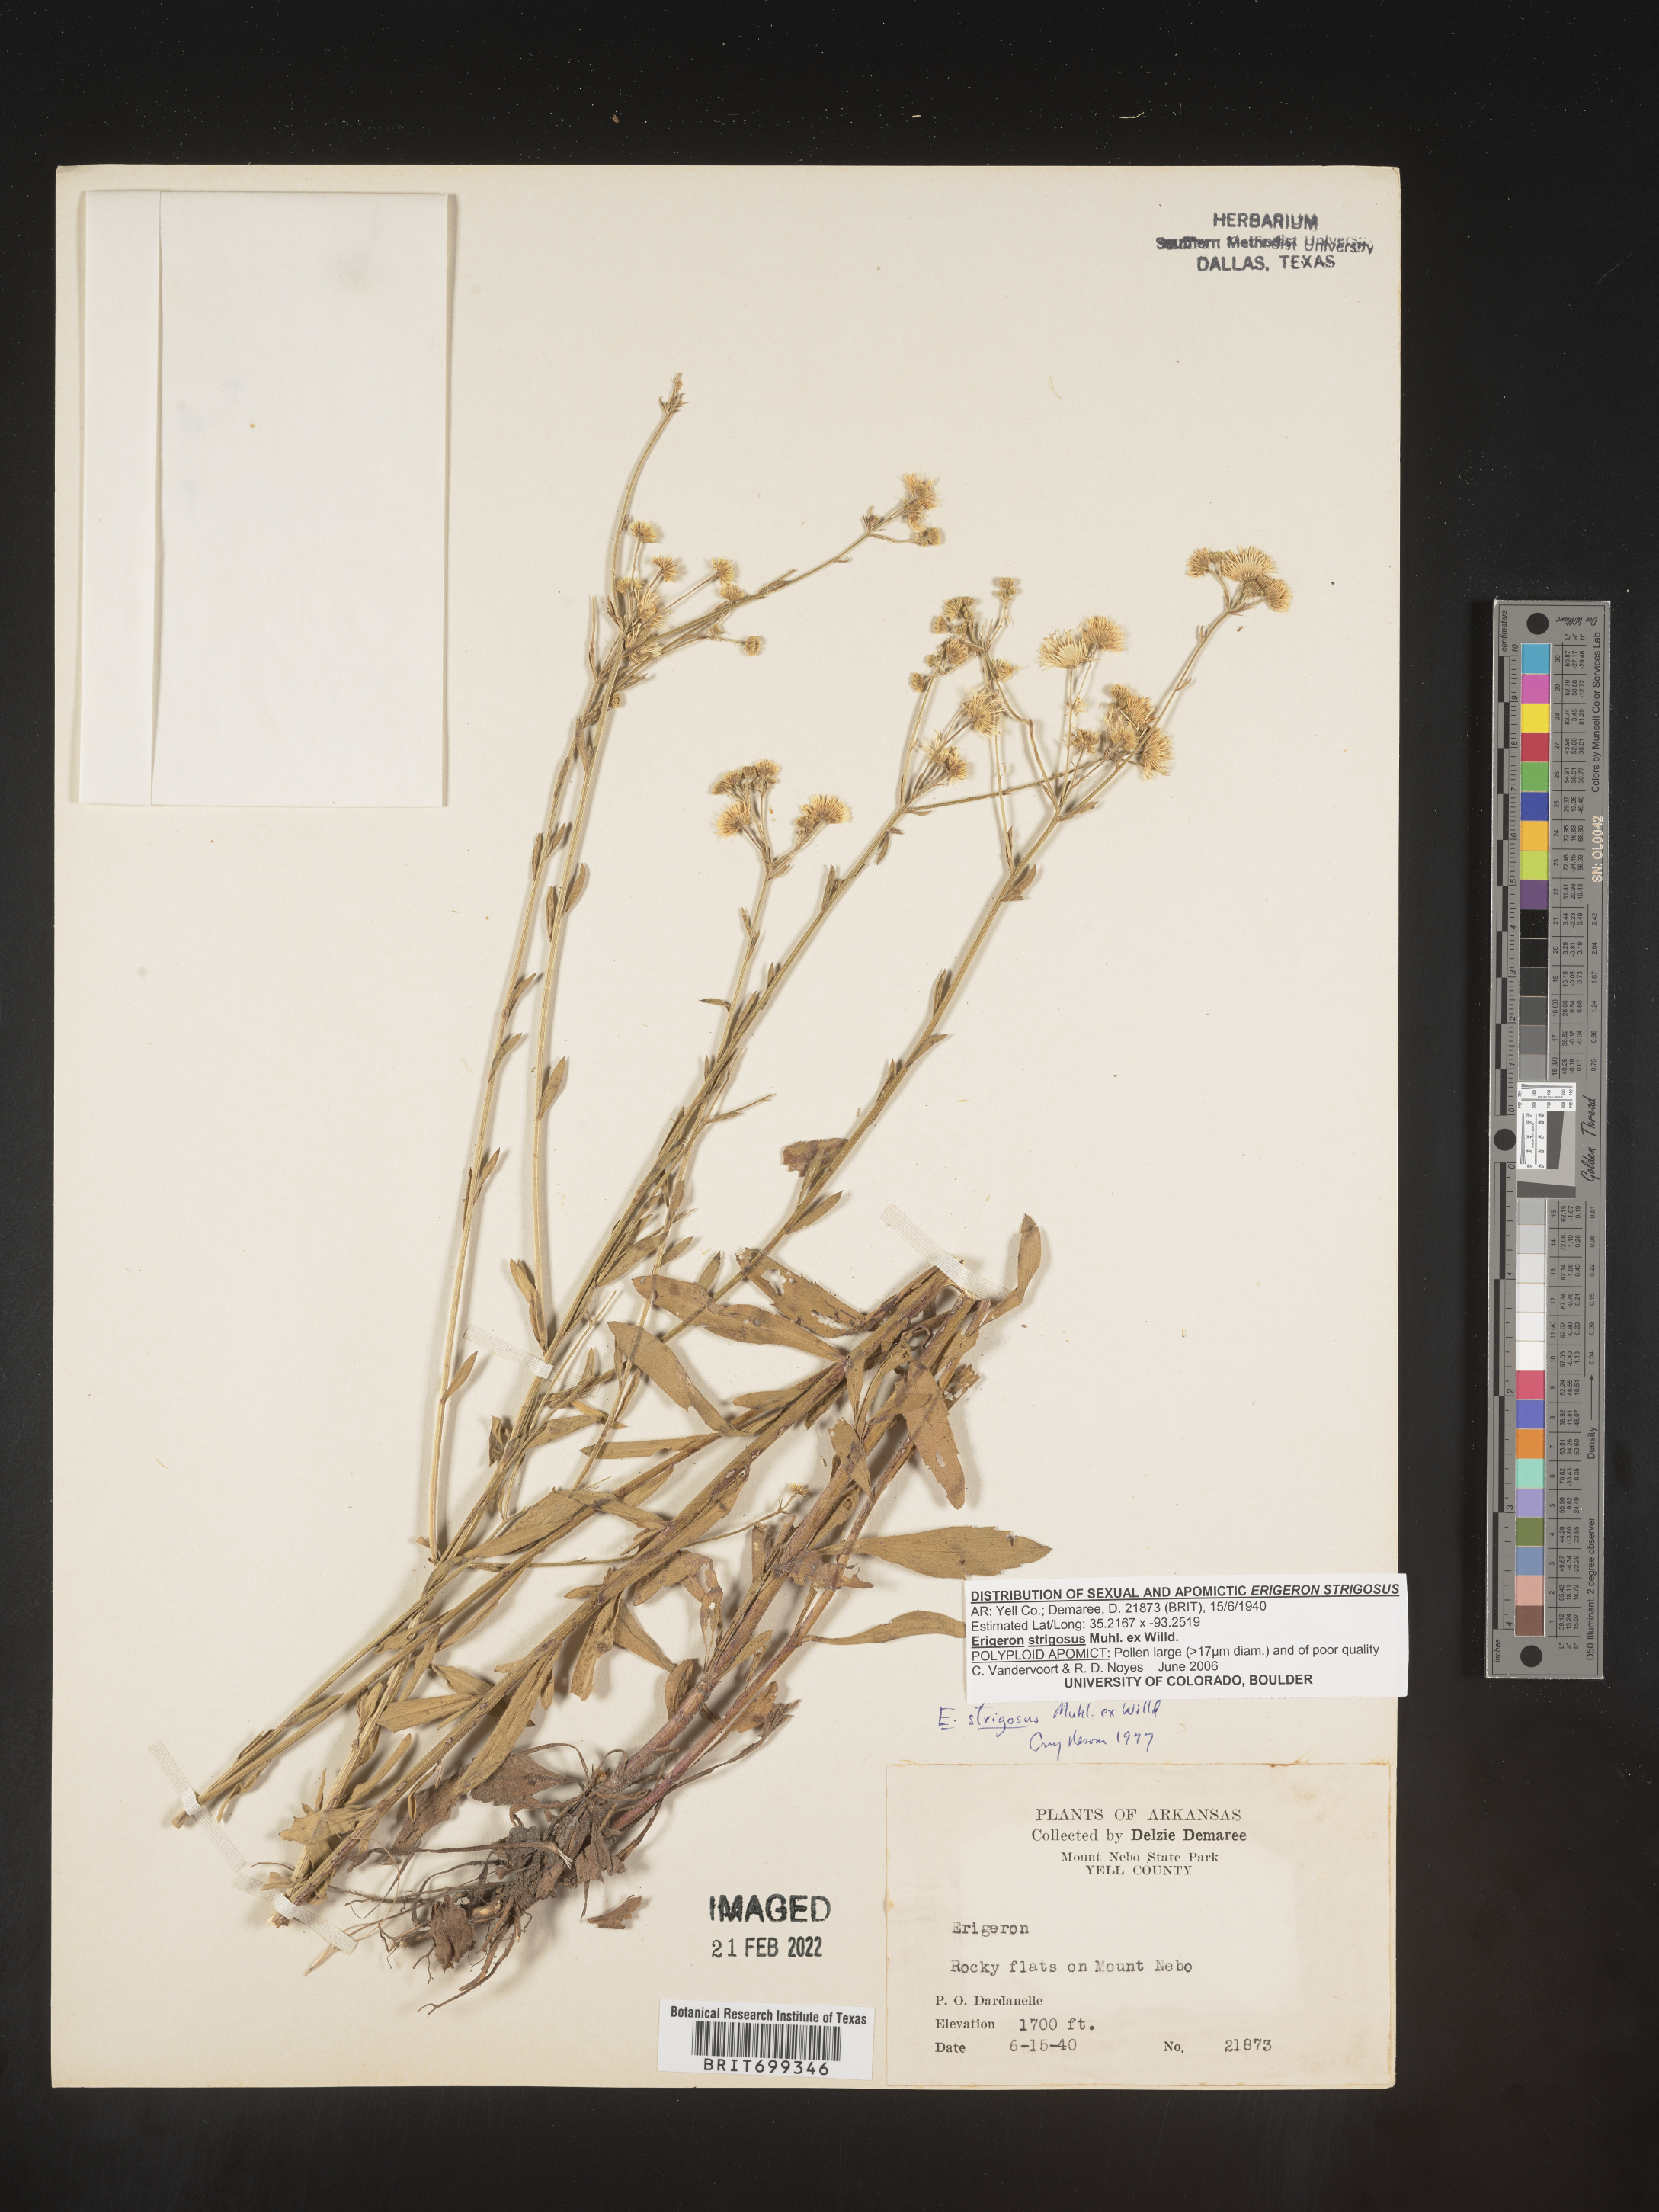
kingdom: Plantae
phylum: Tracheophyta
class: Magnoliopsida
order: Asterales
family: Asteraceae
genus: Erigeron
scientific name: Erigeron strigosus
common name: Common eastern fleabane
